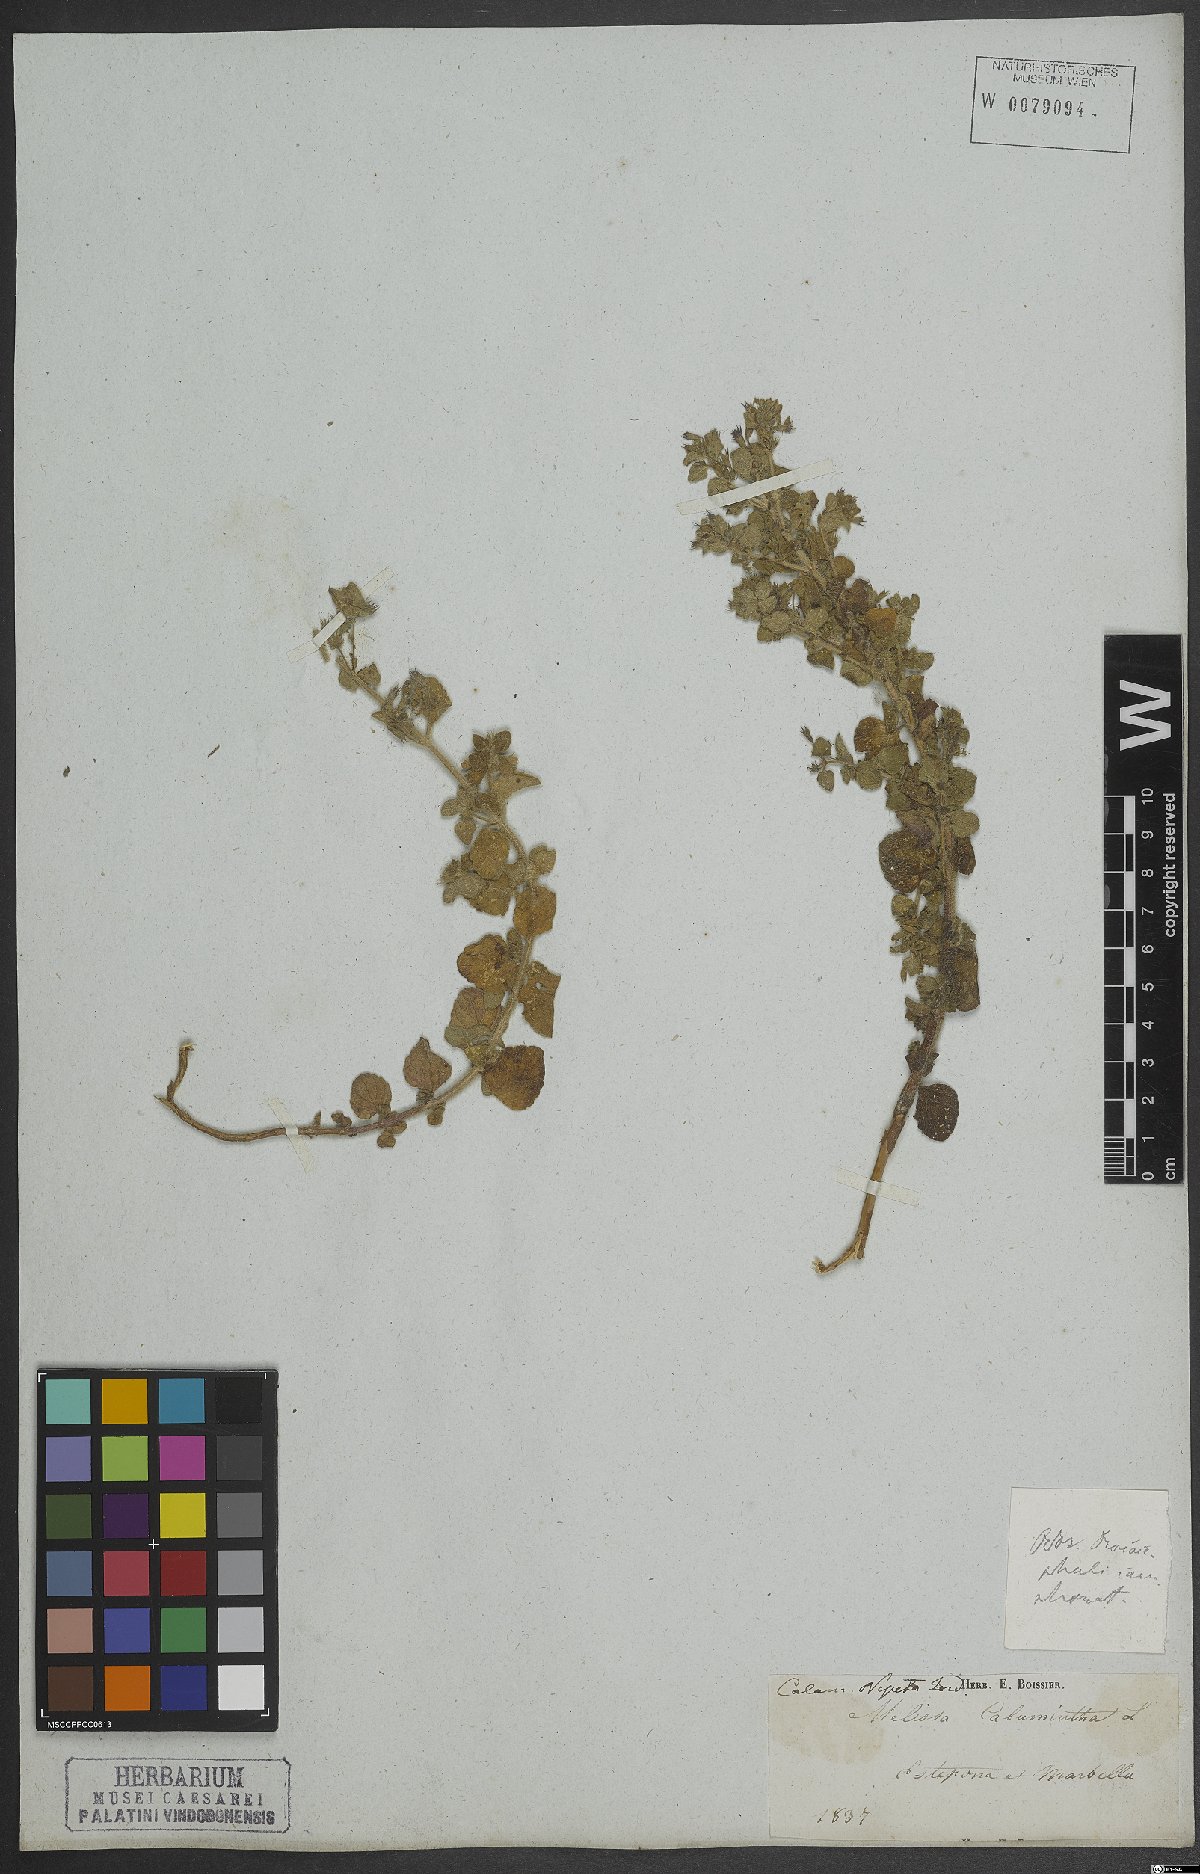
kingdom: Plantae
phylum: Tracheophyta
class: Magnoliopsida
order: Lamiales
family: Lamiaceae
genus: Clinopodium
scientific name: Clinopodium nepeta
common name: Lesser calamint
